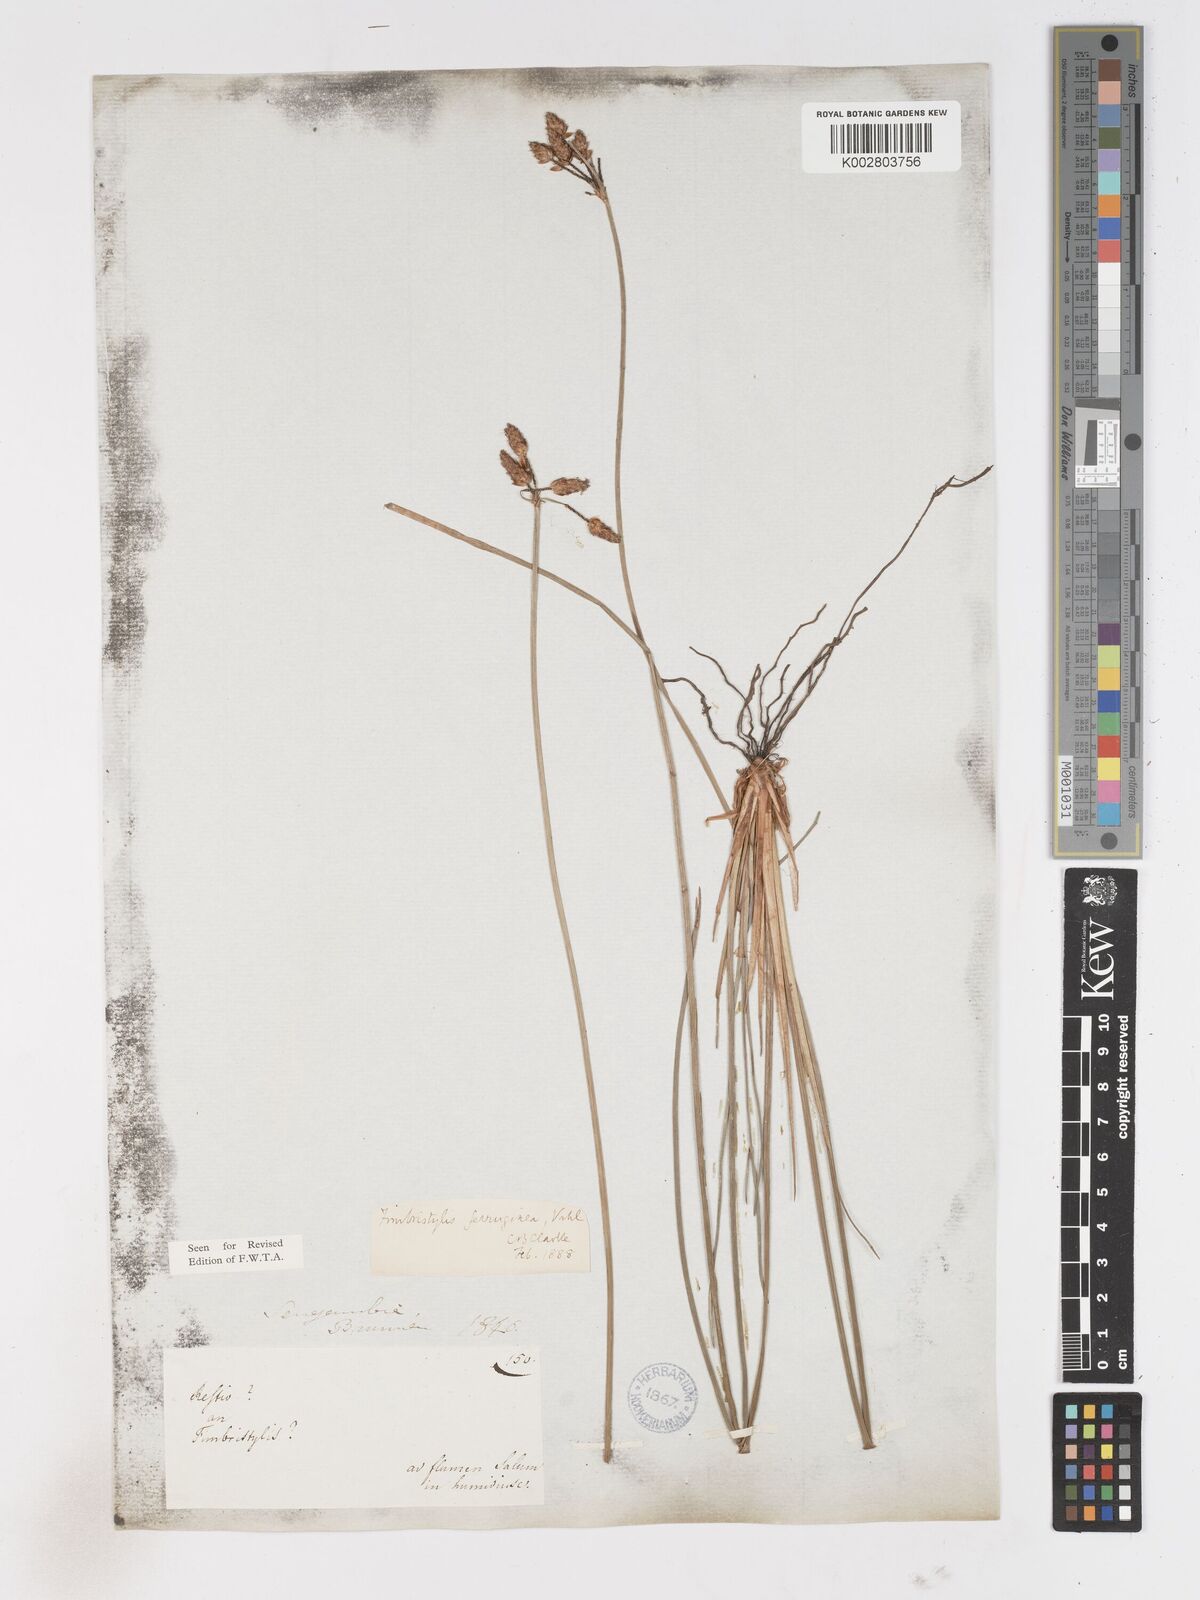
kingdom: Plantae
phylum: Tracheophyta
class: Liliopsida
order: Poales
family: Cyperaceae
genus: Fimbristylis
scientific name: Fimbristylis ferruginea
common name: West indian fimbry
